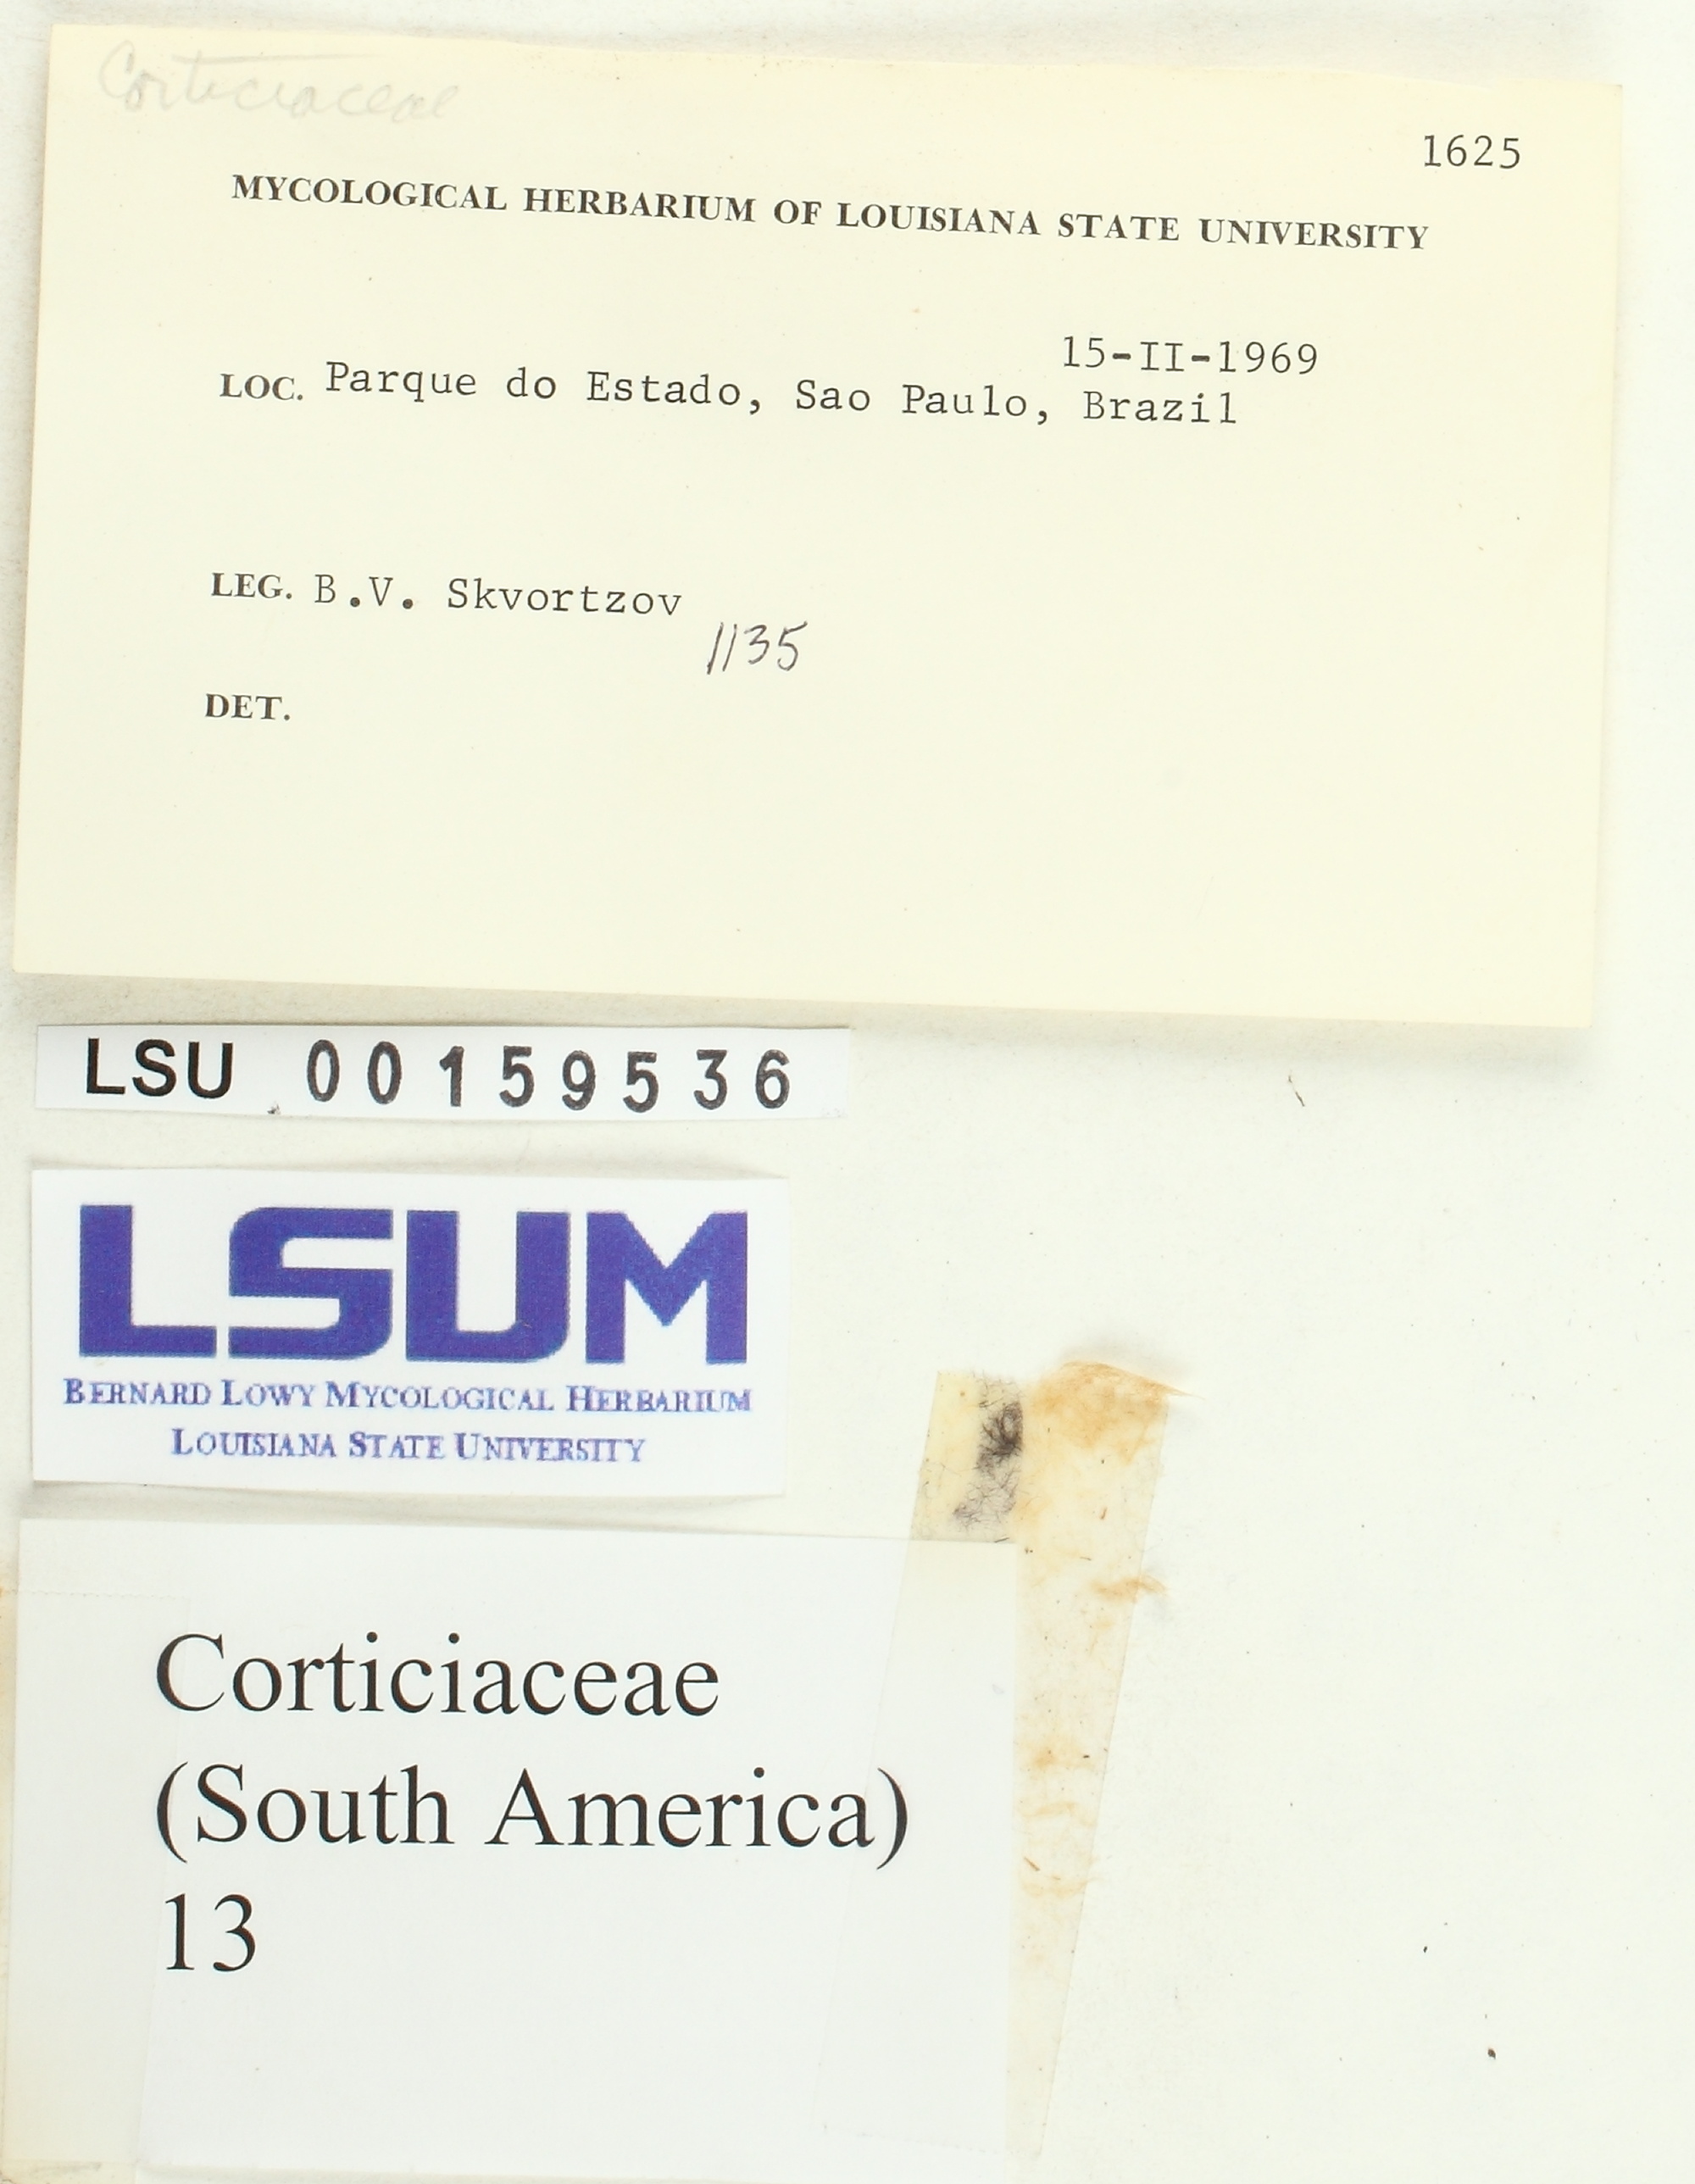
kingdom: Fungi
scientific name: Fungi
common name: Fungi
